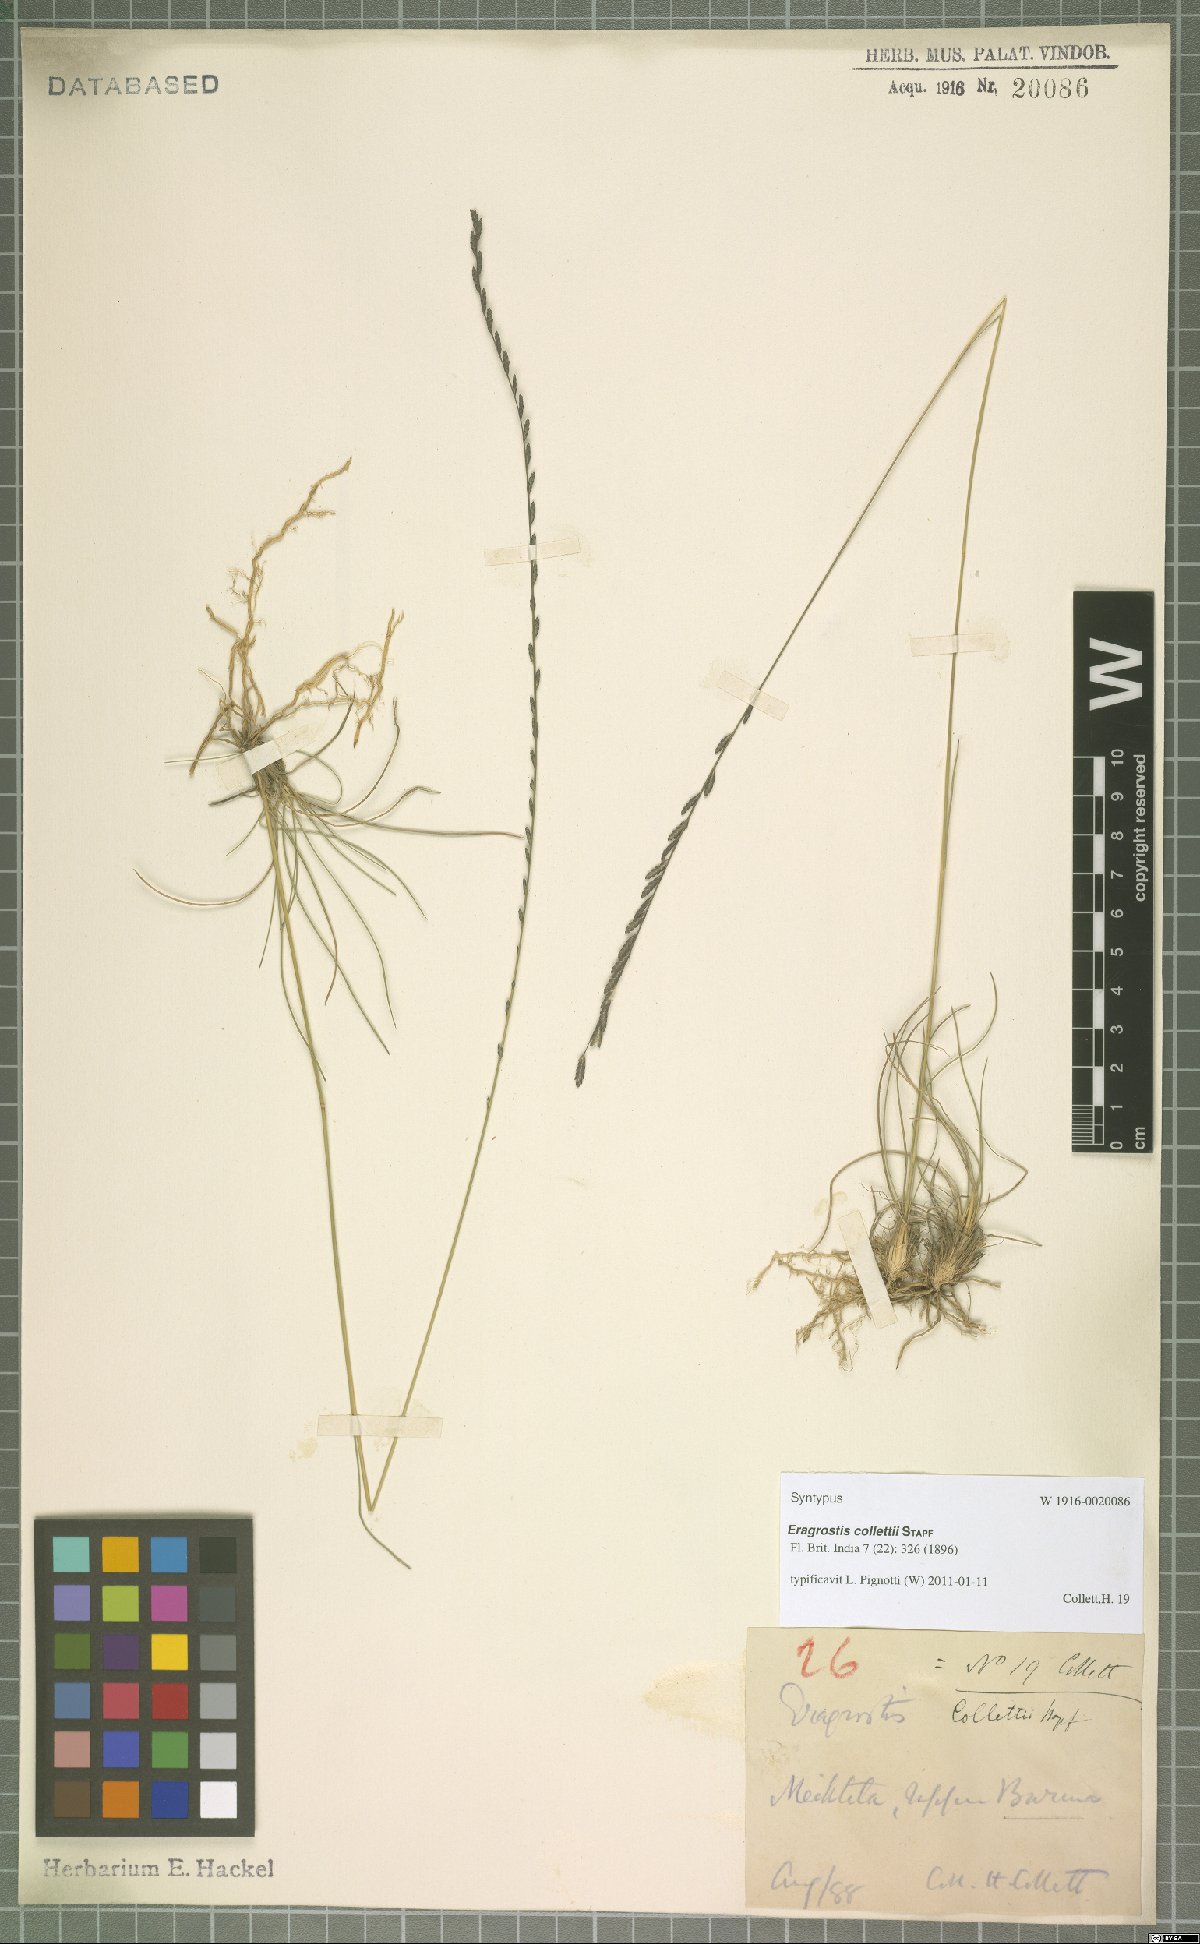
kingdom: Plantae
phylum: Tracheophyta
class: Liliopsida
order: Poales
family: Poaceae
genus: Eragrostiella
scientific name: Eragrostiella collettii
